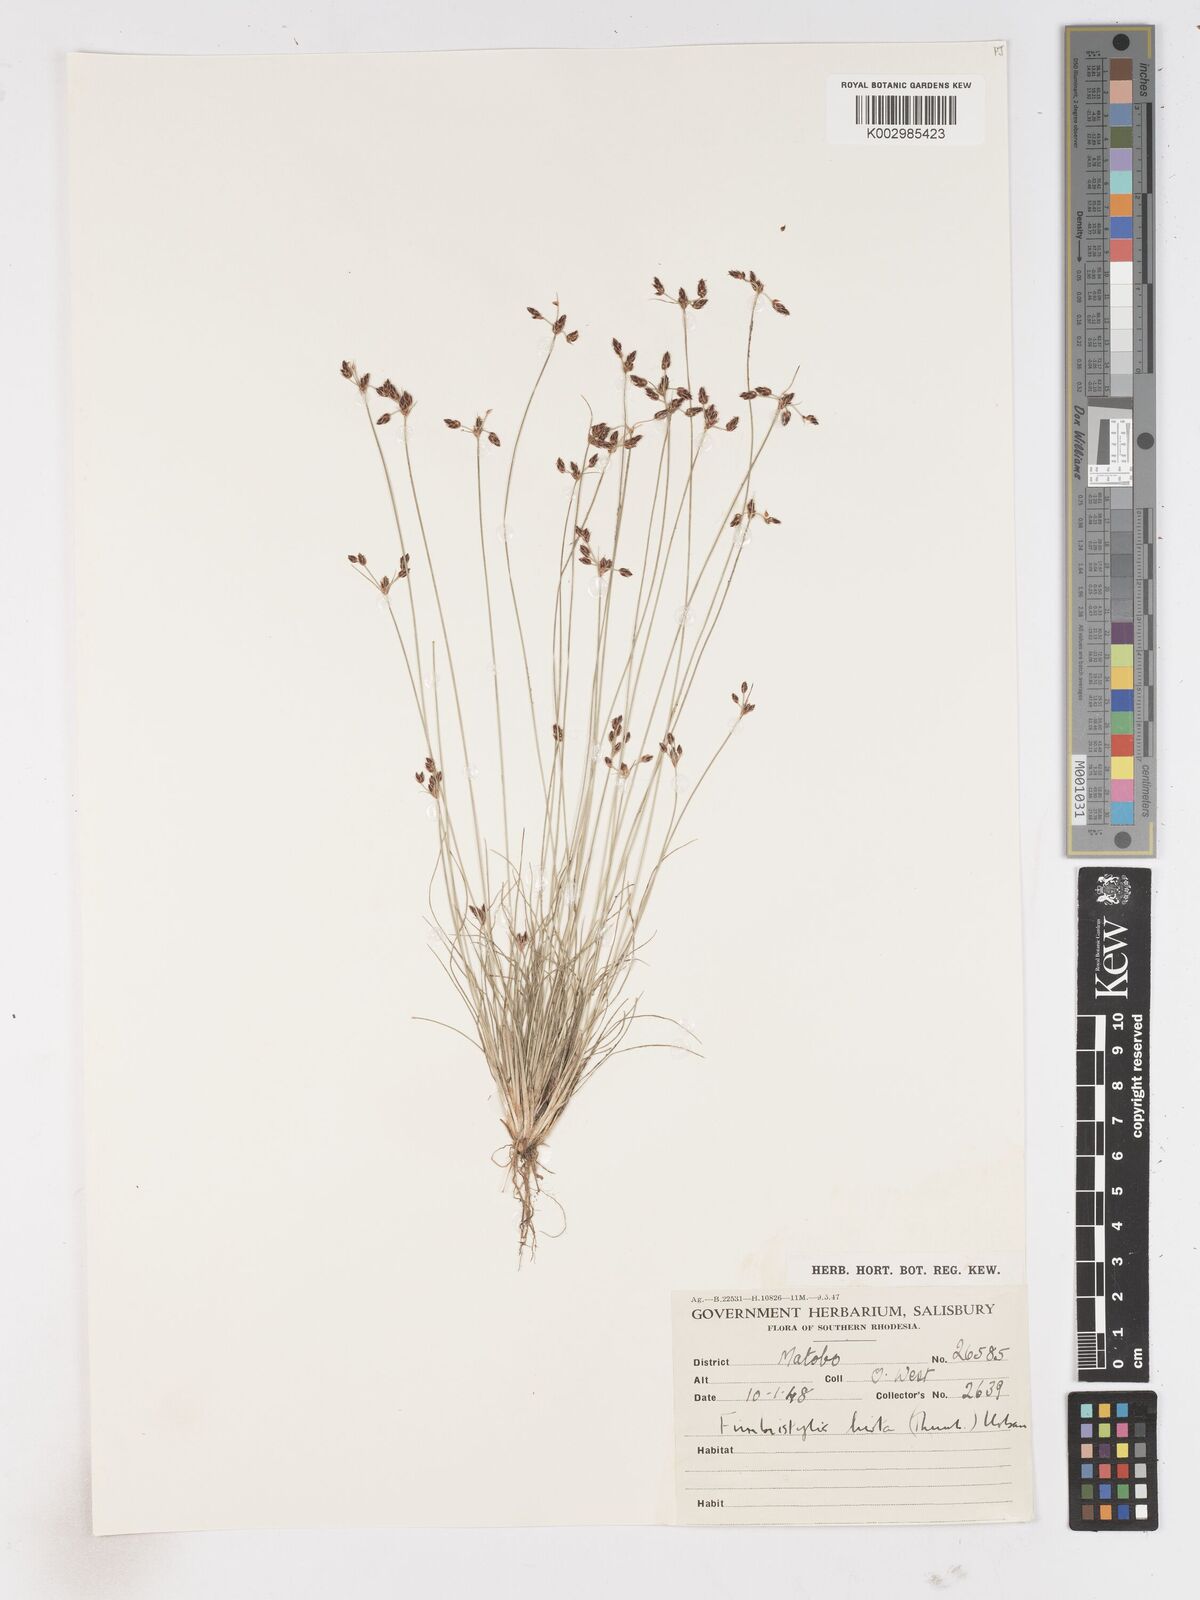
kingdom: Plantae
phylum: Tracheophyta
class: Liliopsida
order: Poales
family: Cyperaceae
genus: Fimbristylis
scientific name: Fimbristylis
